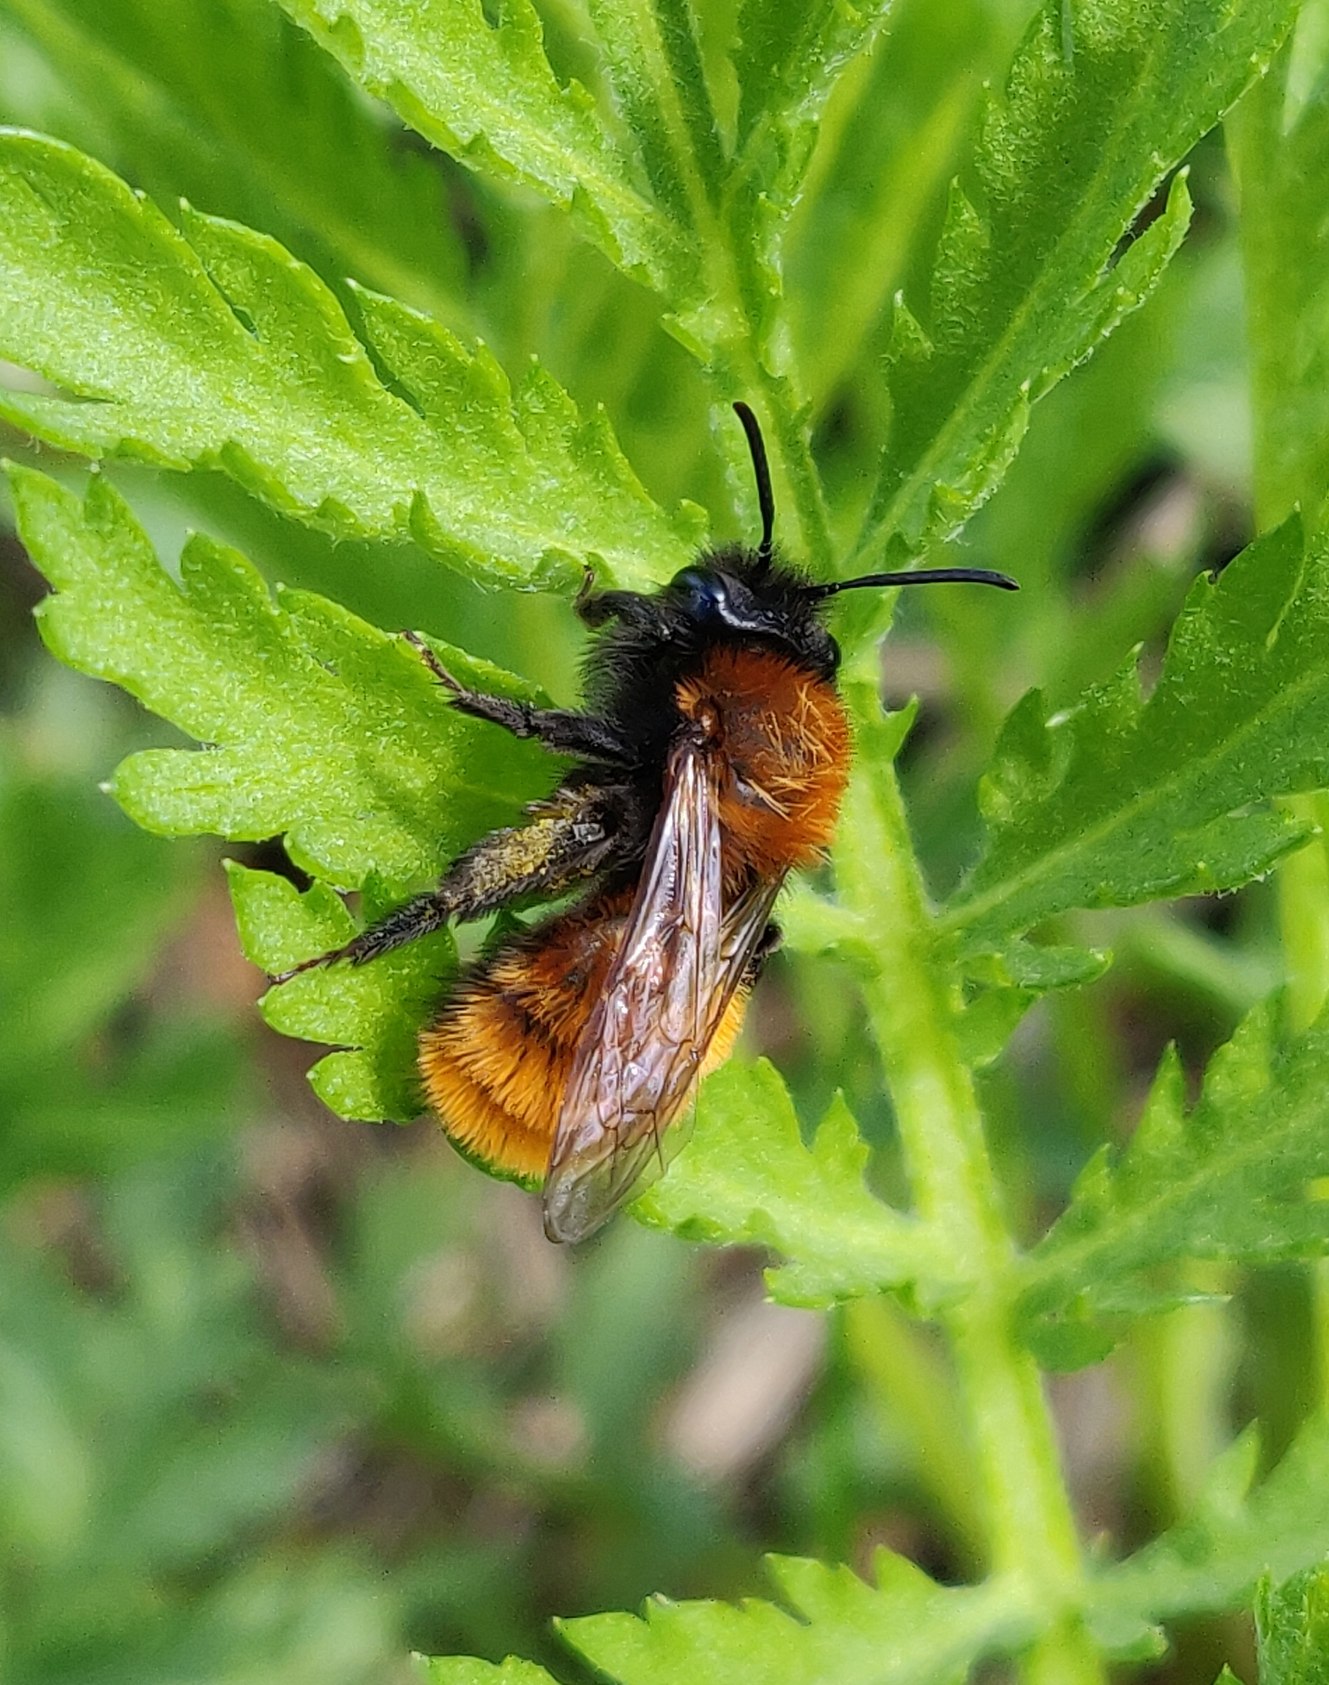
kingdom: Animalia
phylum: Arthropoda
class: Insecta
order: Hymenoptera
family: Andrenidae
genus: Andrena
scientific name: Andrena fulva
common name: Rødpelset jordbi
